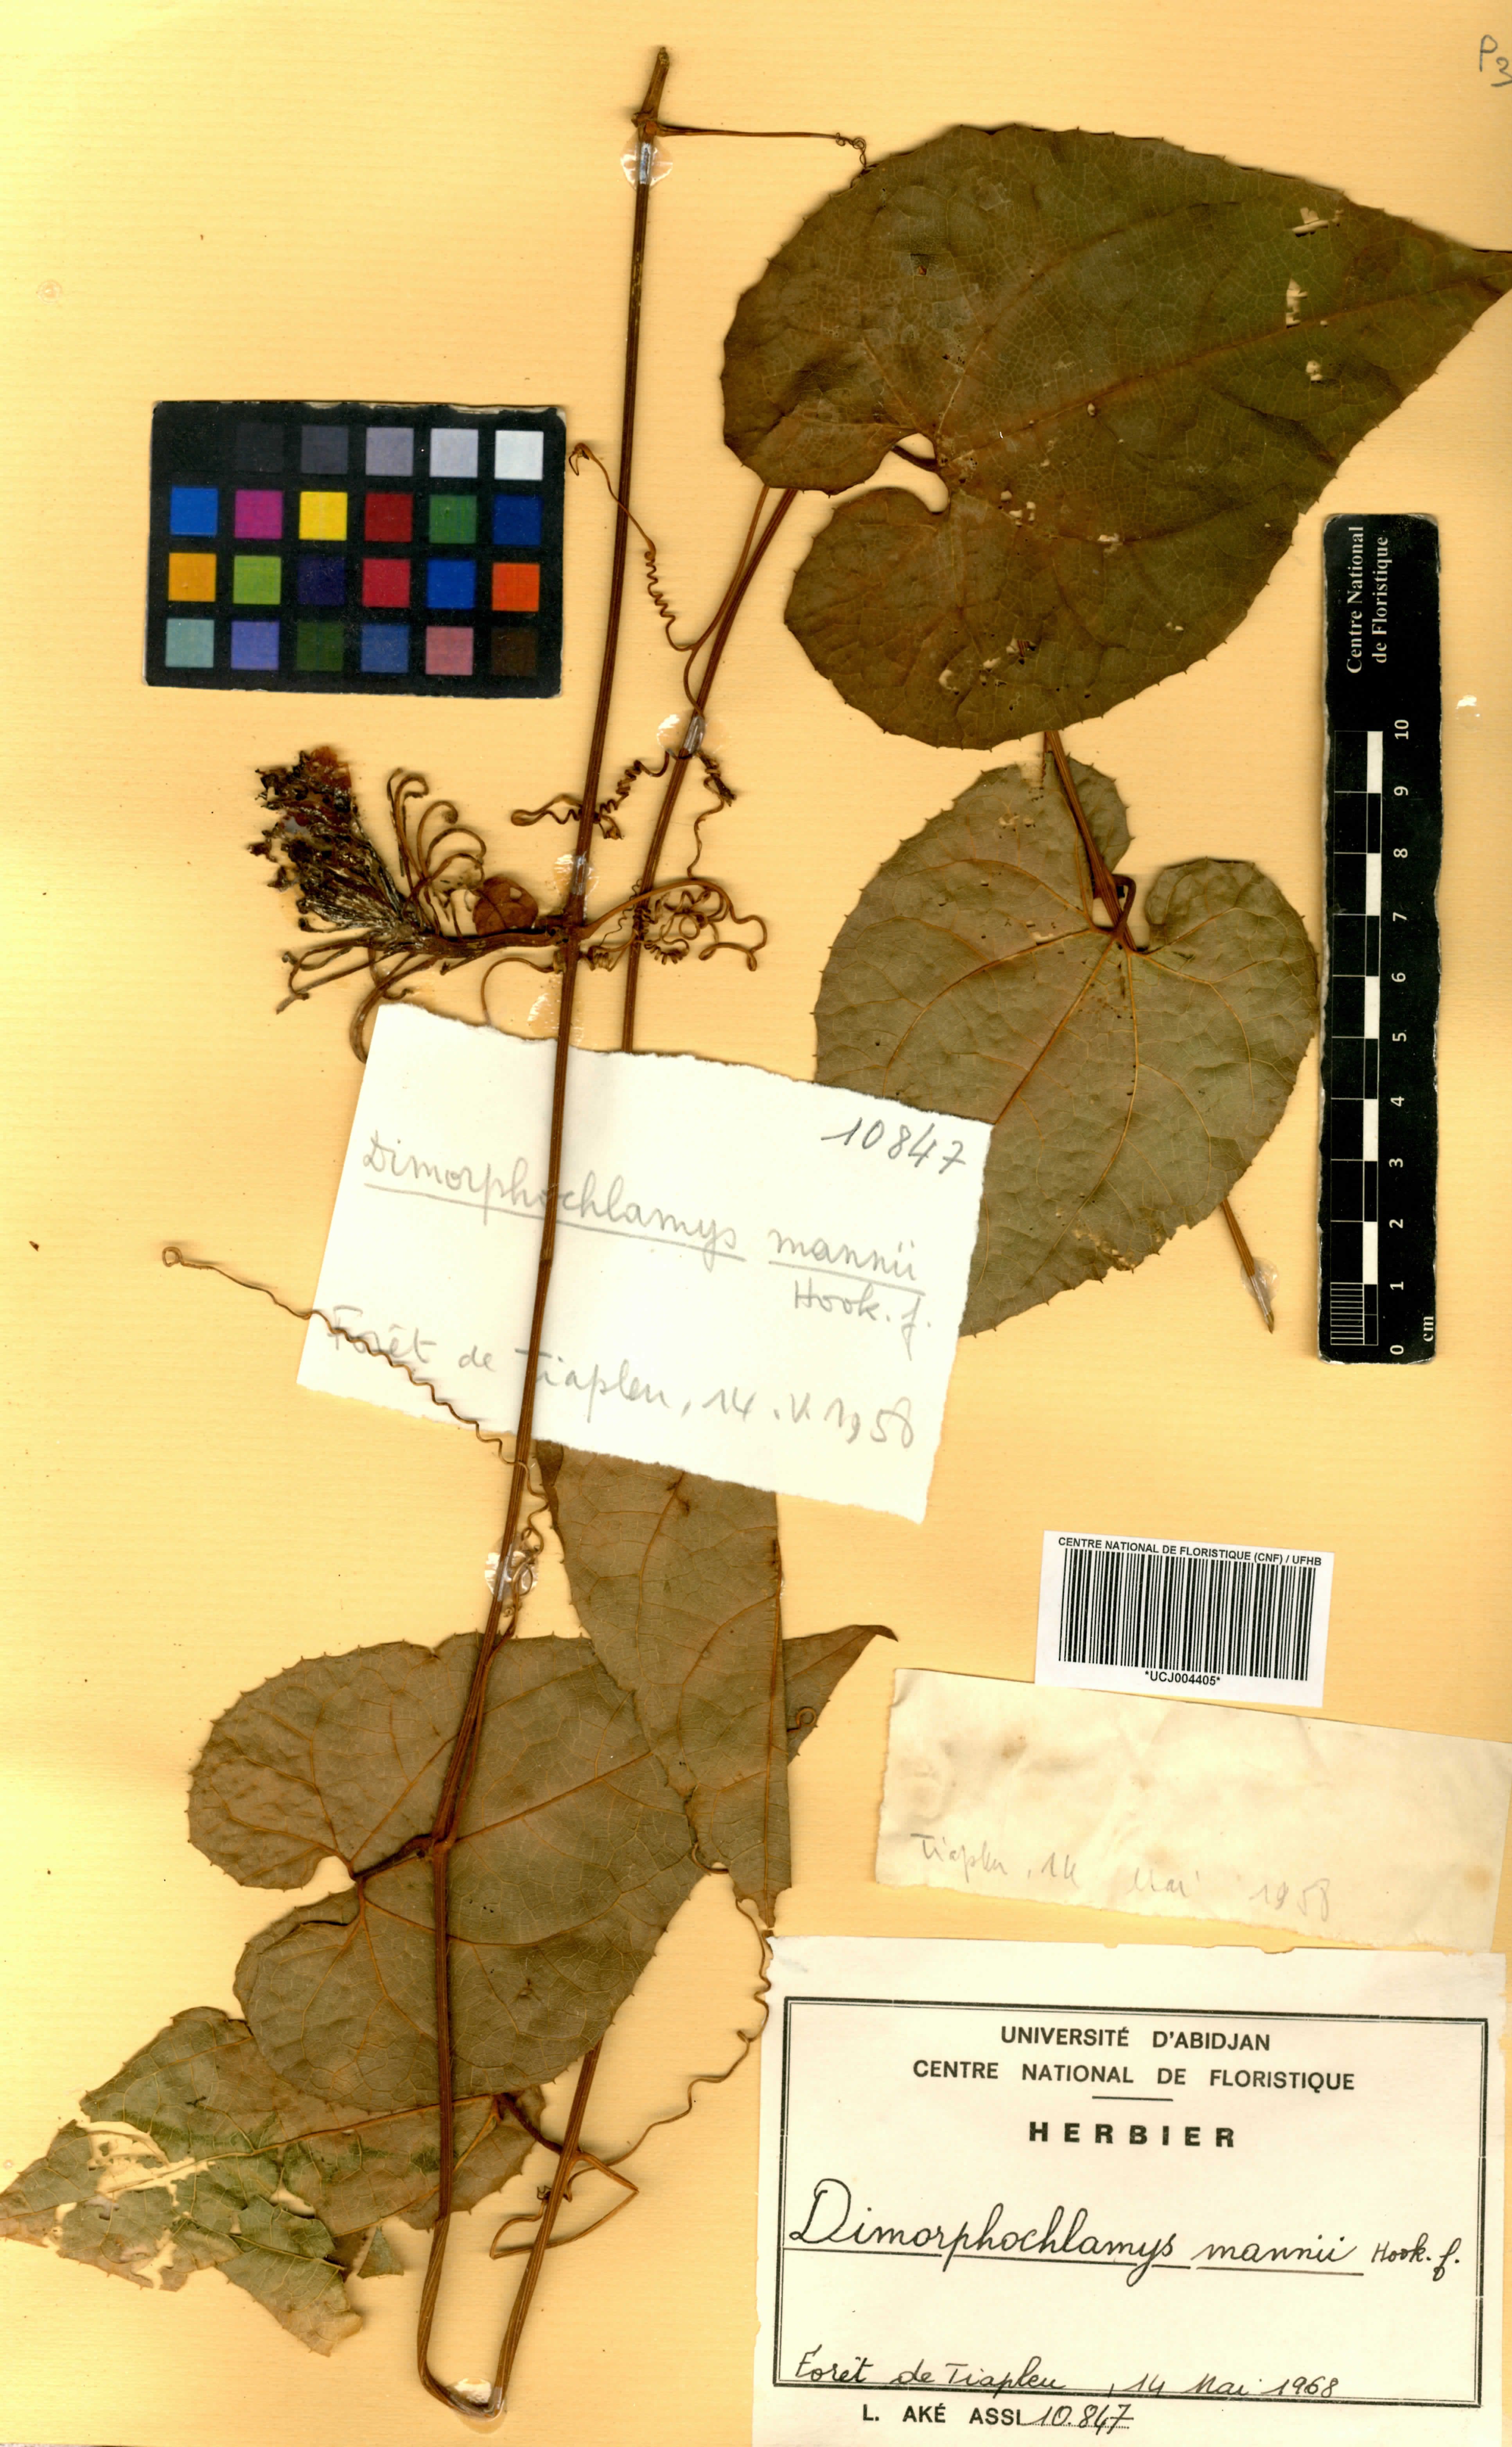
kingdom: Plantae
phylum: Tracheophyta
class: Magnoliopsida
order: Cucurbitales
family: Cucurbitaceae
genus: Momordica
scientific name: Momordica cabrae
